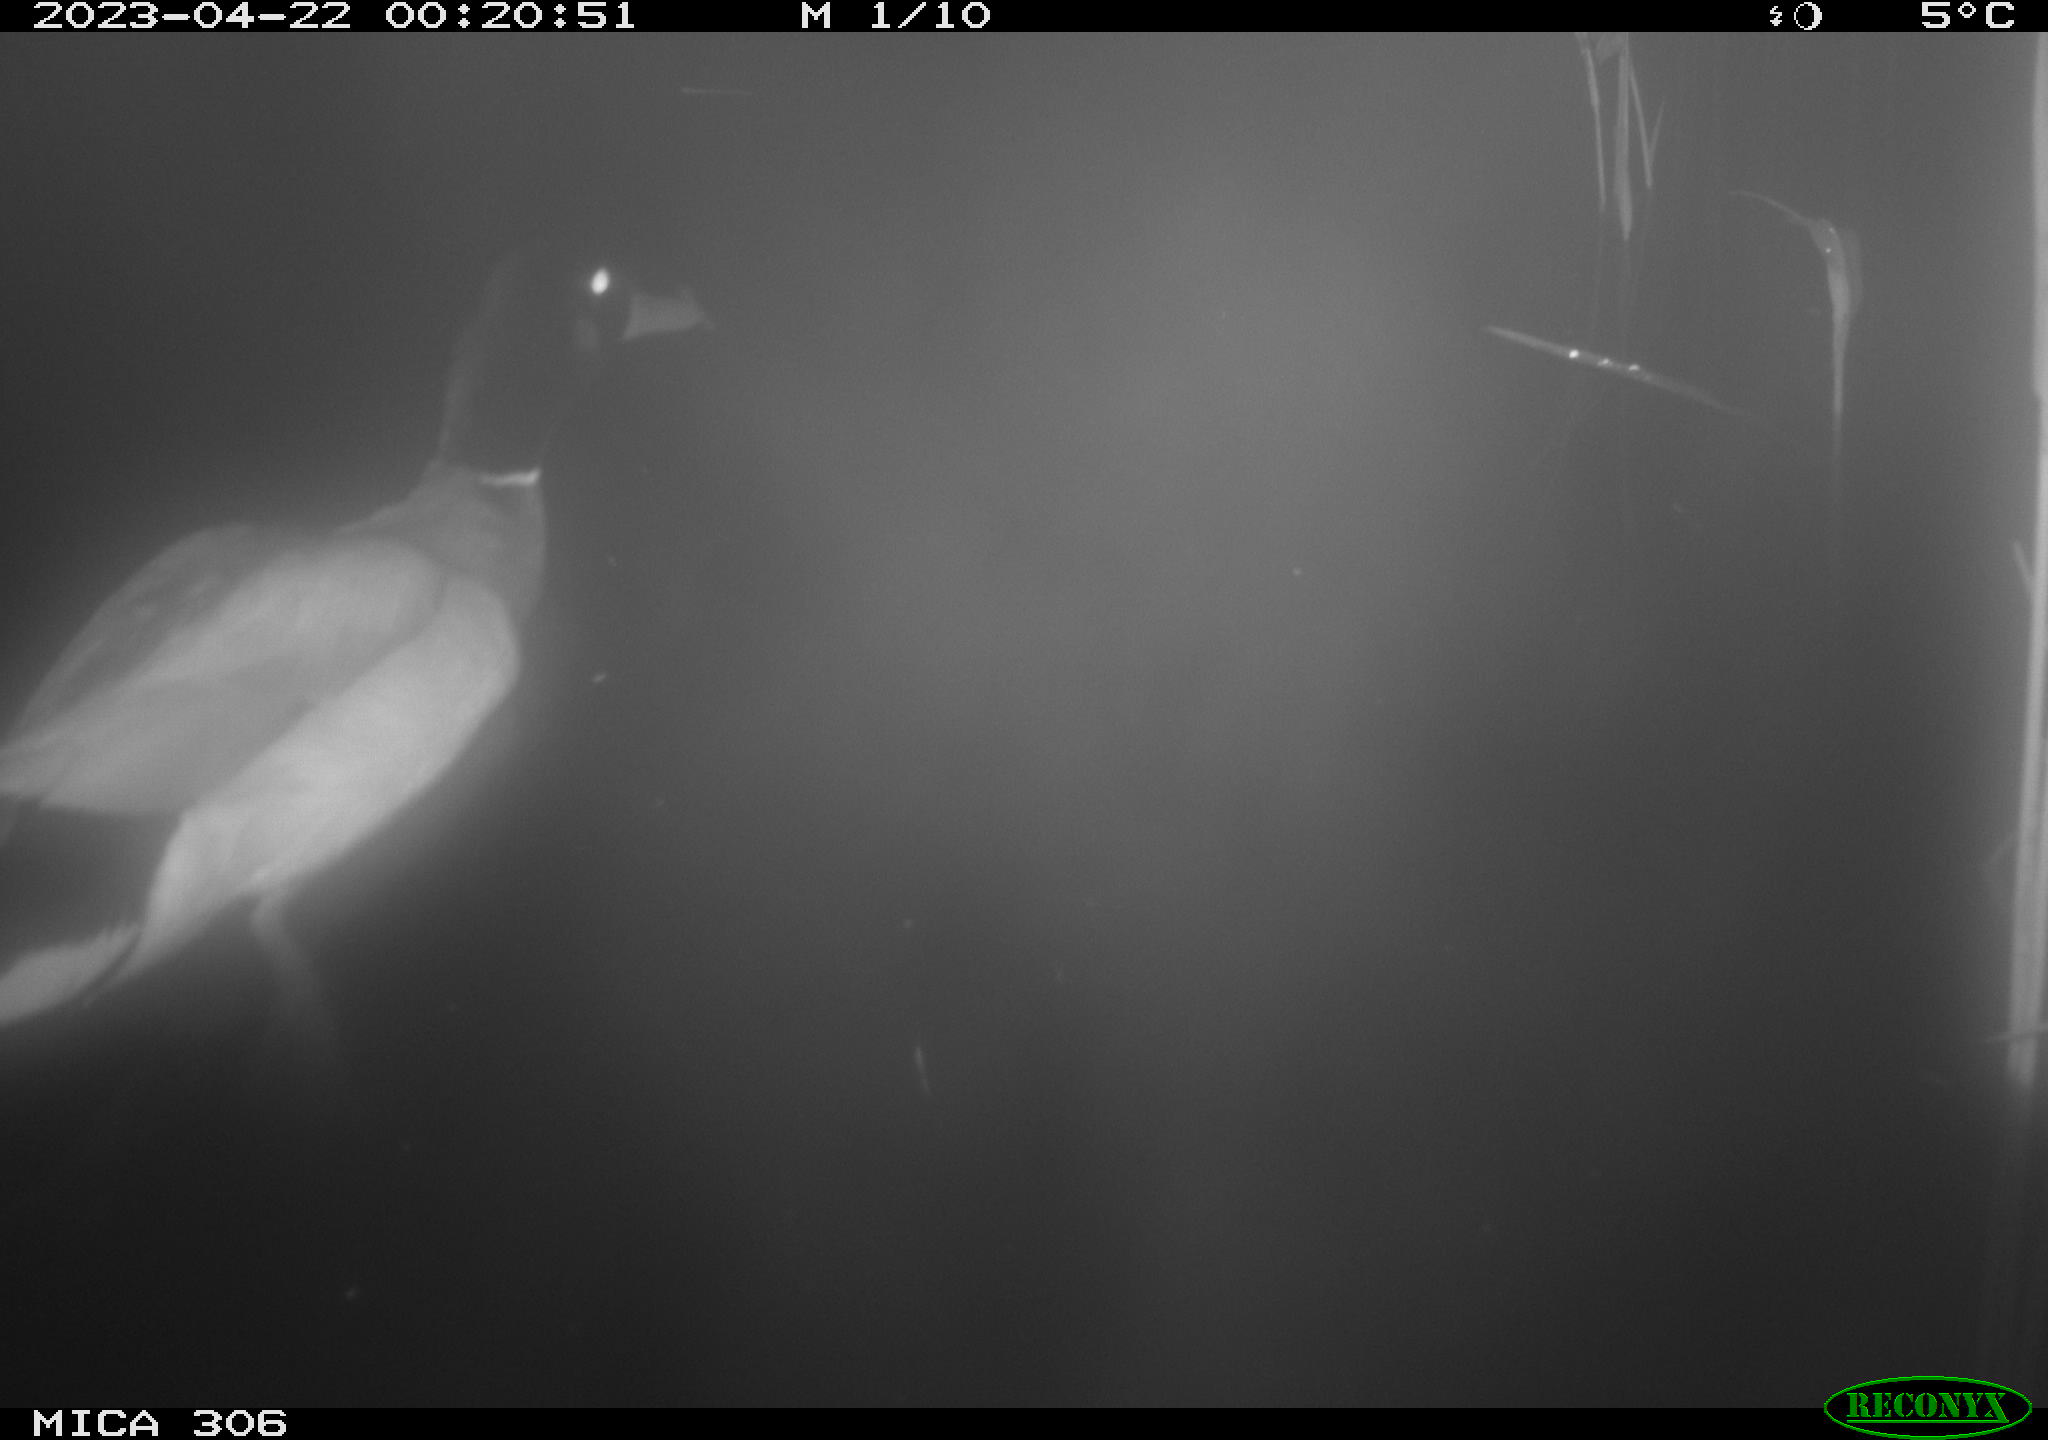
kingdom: Animalia
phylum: Chordata
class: Aves
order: Anseriformes
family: Anatidae
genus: Anas
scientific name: Anas
